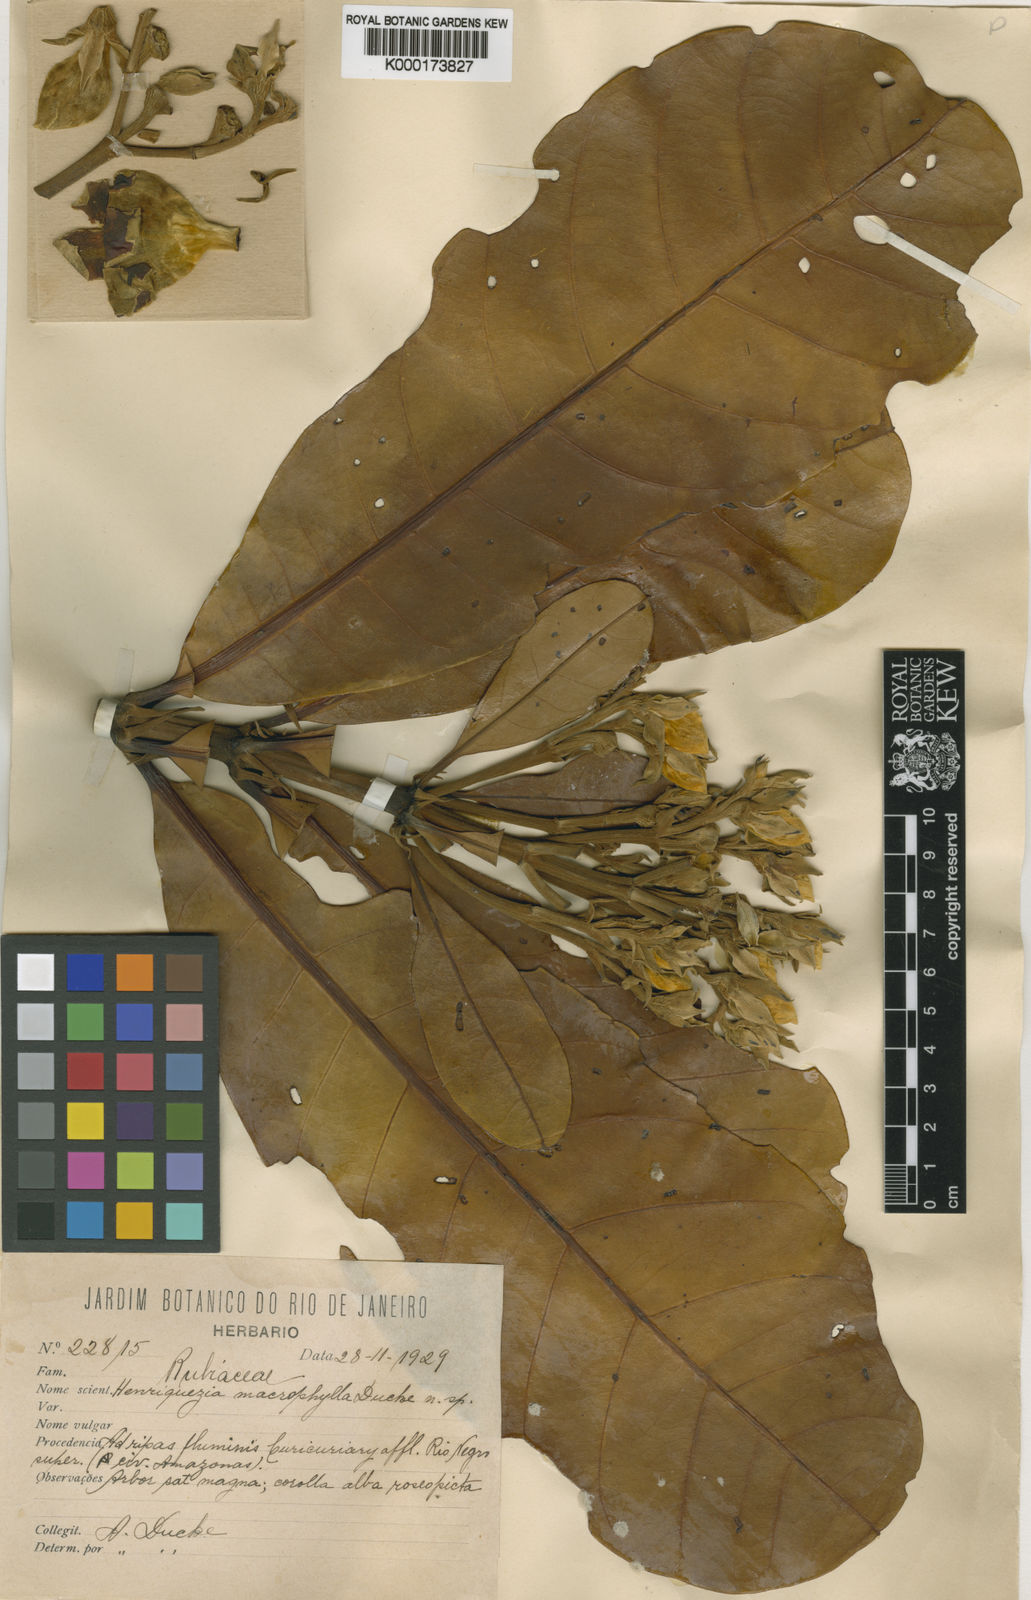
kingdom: Plantae
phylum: Tracheophyta
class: Magnoliopsida
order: Gentianales
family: Rubiaceae
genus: Henriquezia
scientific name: Henriquezia nitida
